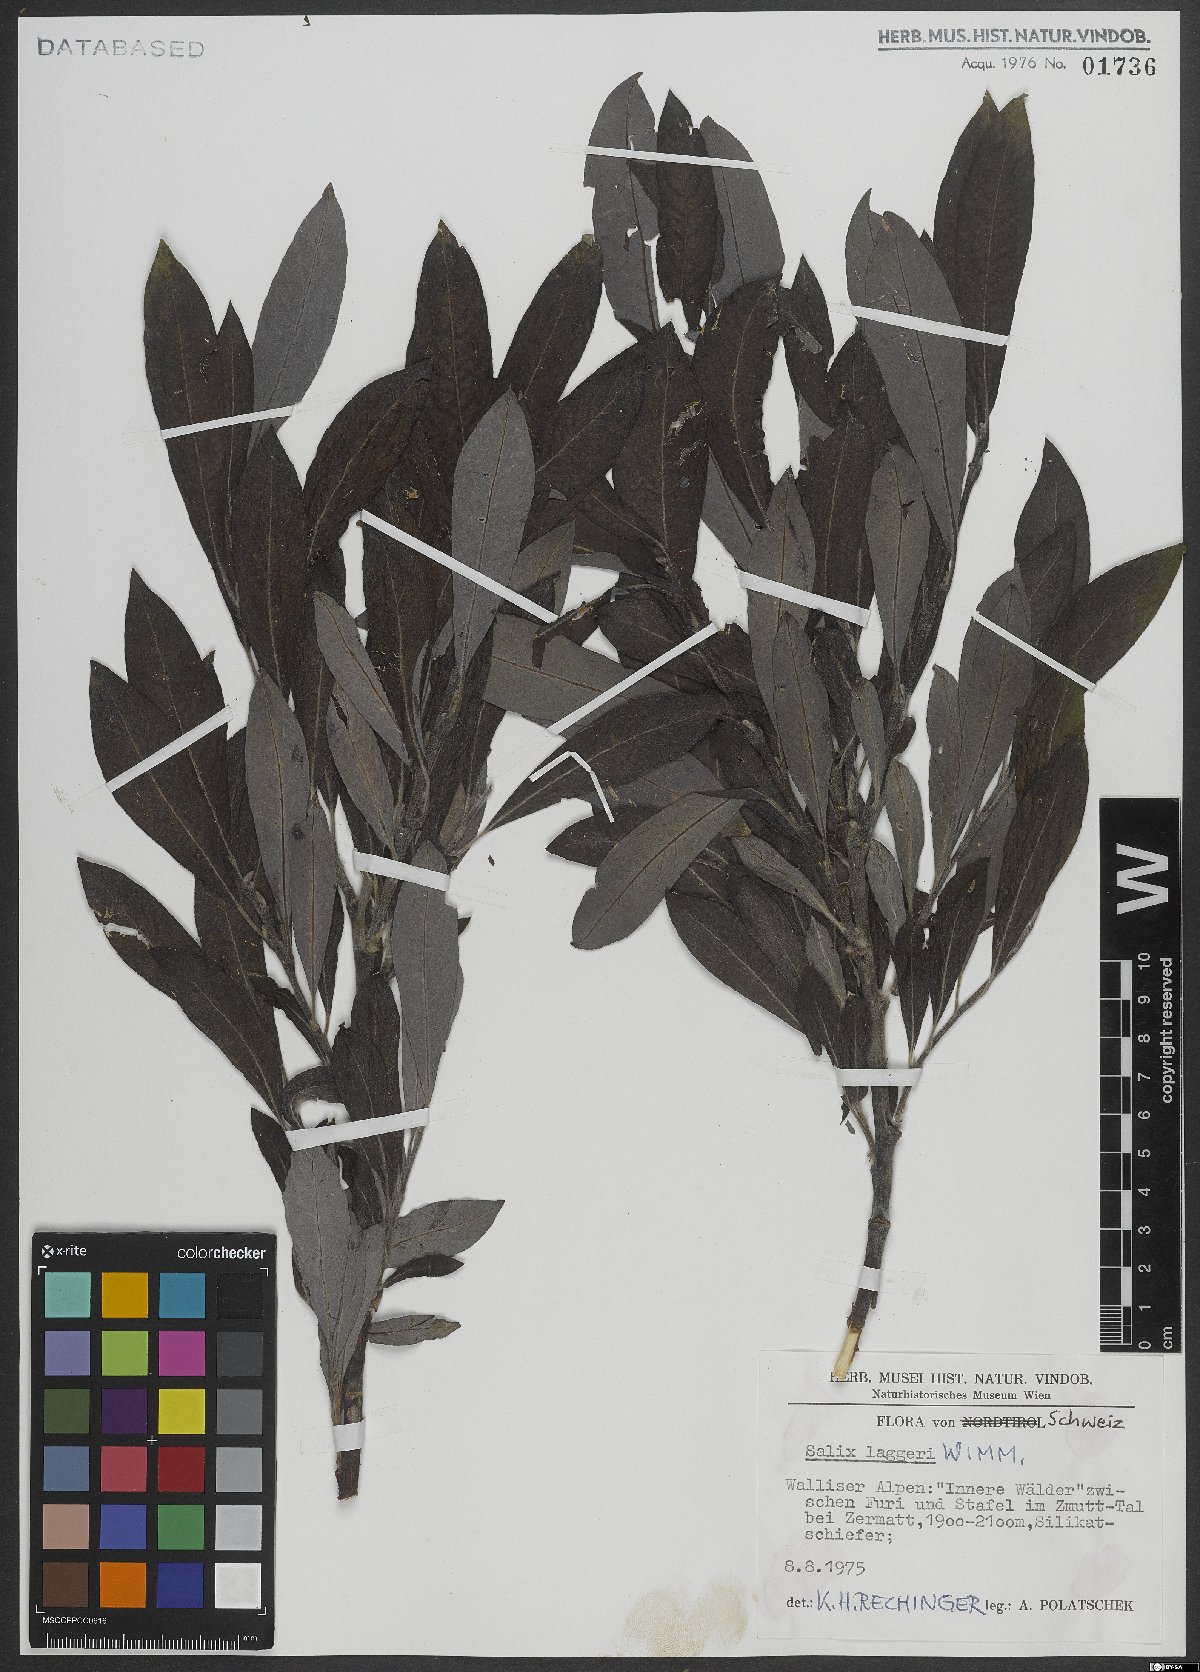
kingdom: Plantae
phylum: Tracheophyta
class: Magnoliopsida
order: Malpighiales
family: Salicaceae
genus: Salix
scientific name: Salix laggeri
